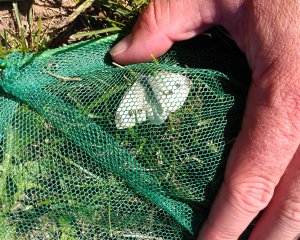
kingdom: Animalia
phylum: Arthropoda
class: Insecta
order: Lepidoptera
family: Pieridae
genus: Pieris
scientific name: Pieris rapae
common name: Cabbage White
